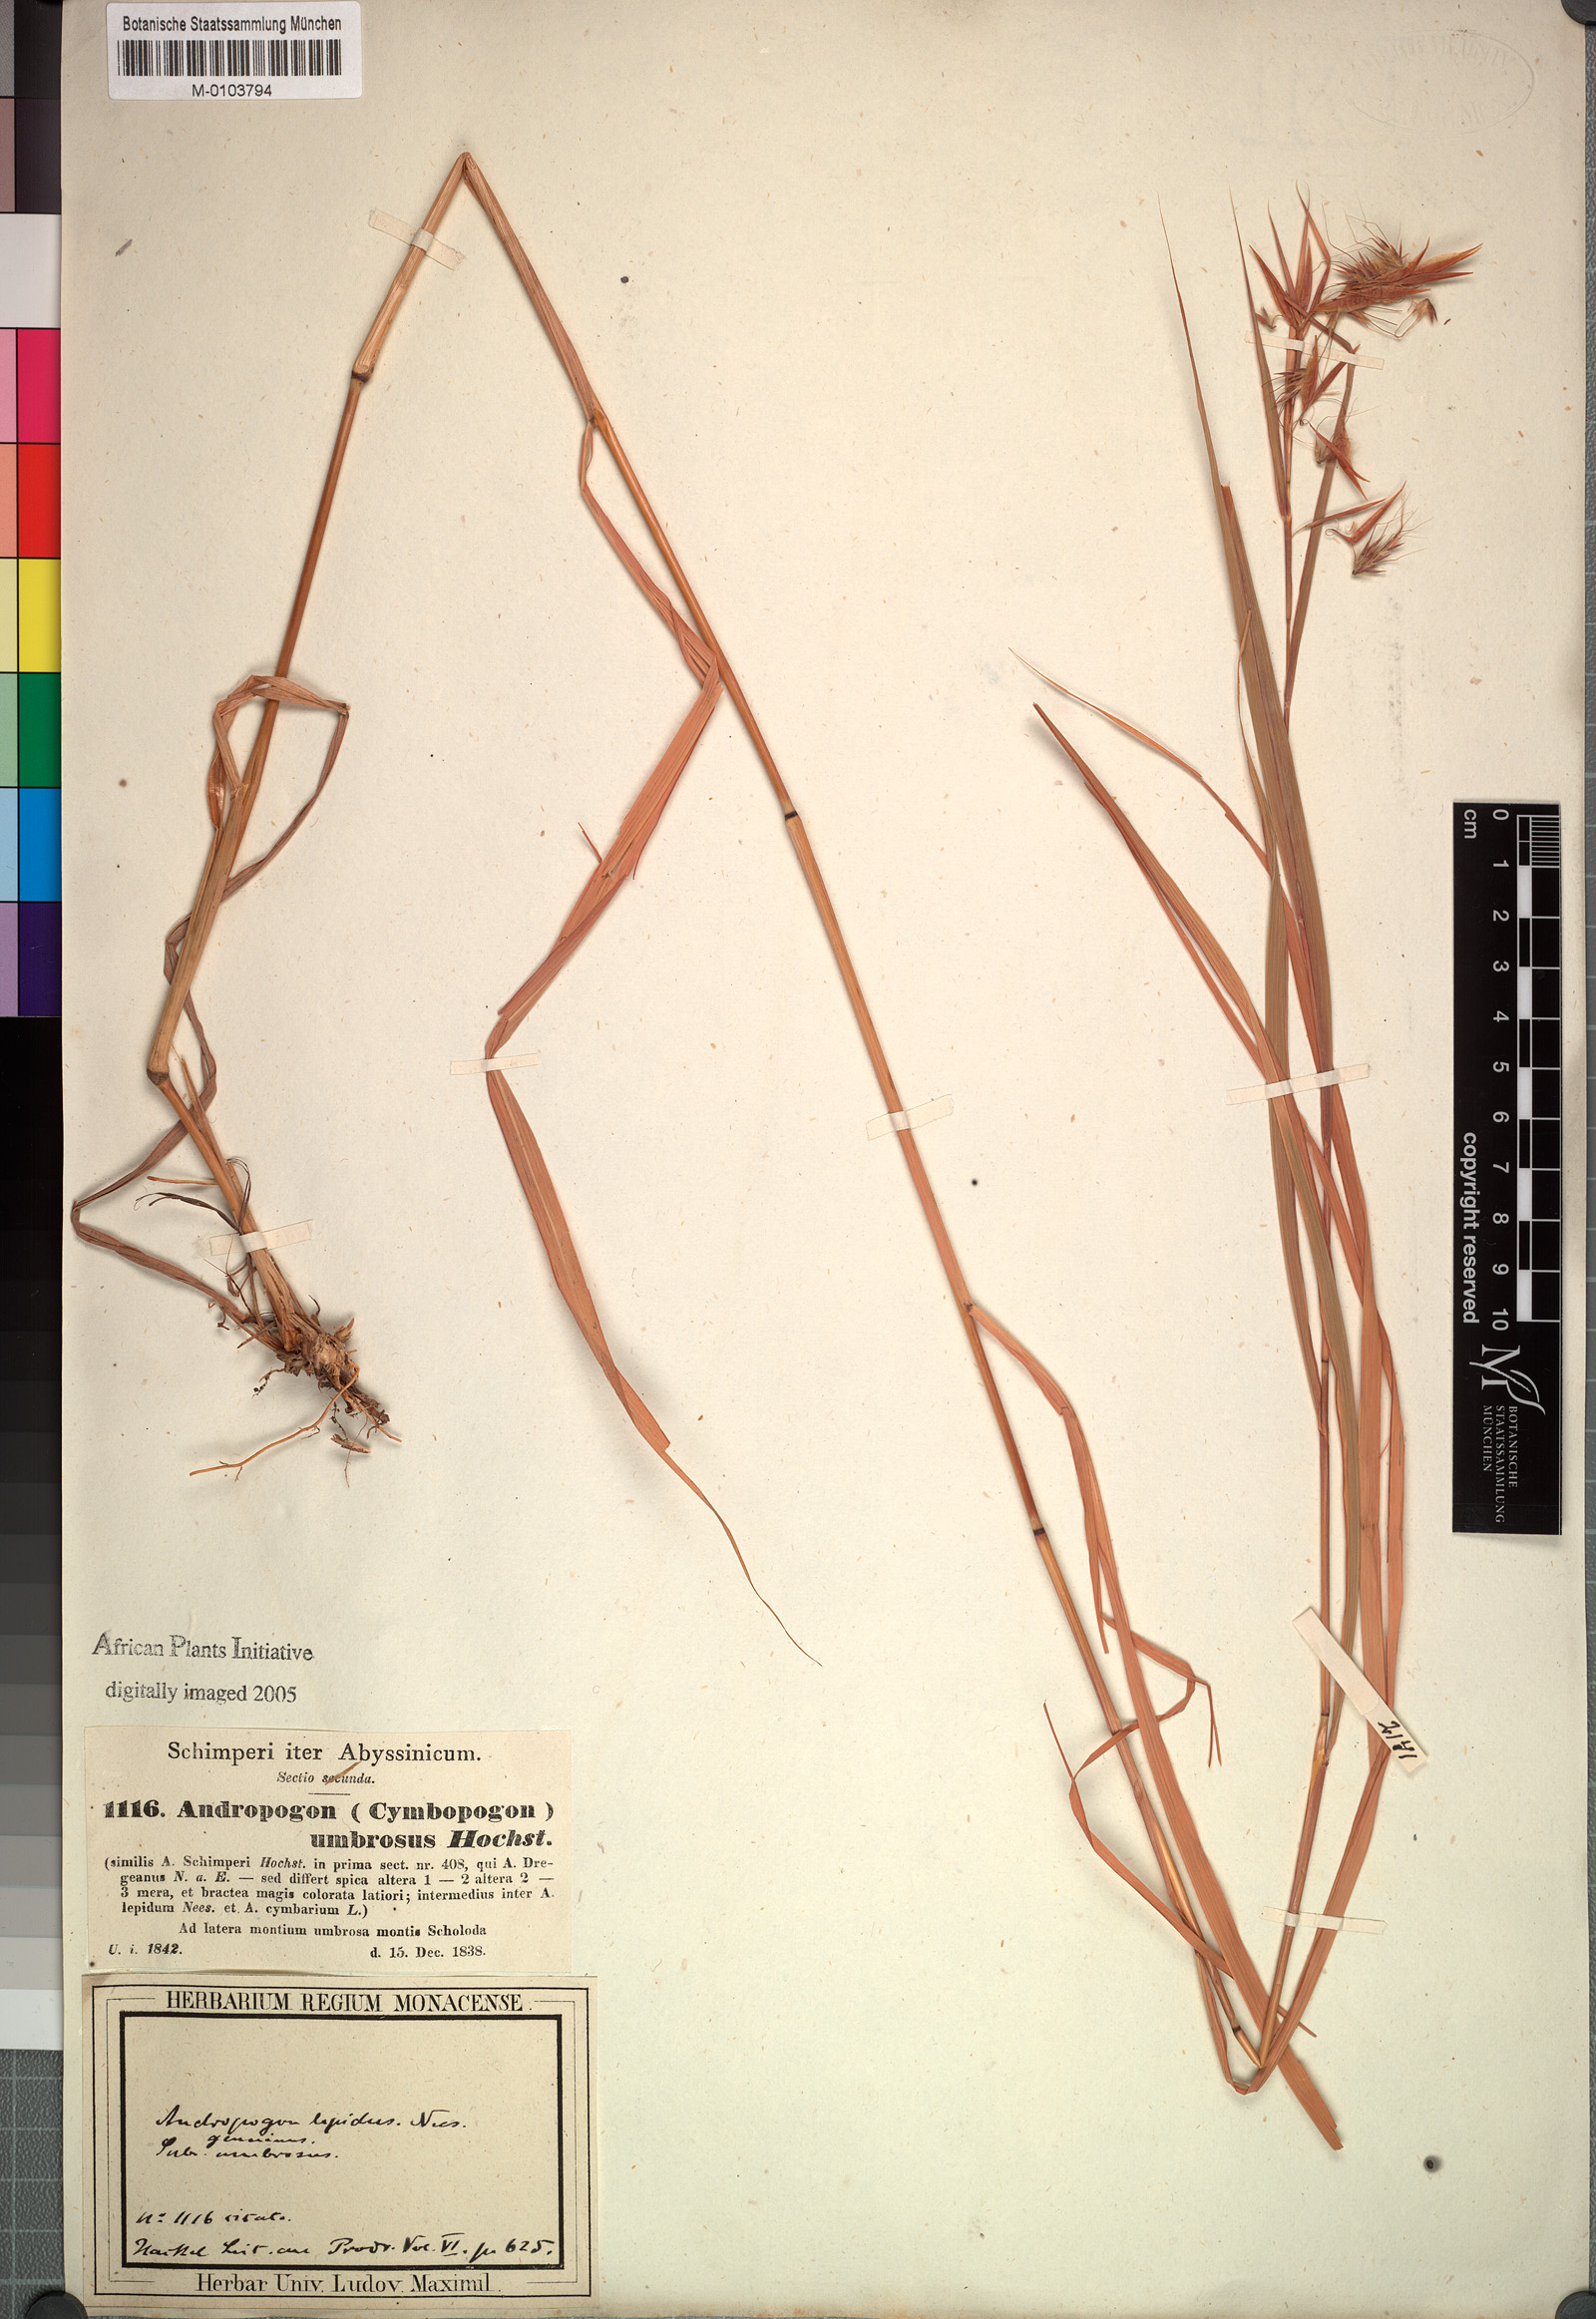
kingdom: Plantae
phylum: Tracheophyta
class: Liliopsida
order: Poales
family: Poaceae
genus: Hyparrhenia
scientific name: Hyparrhenia umbrosa
